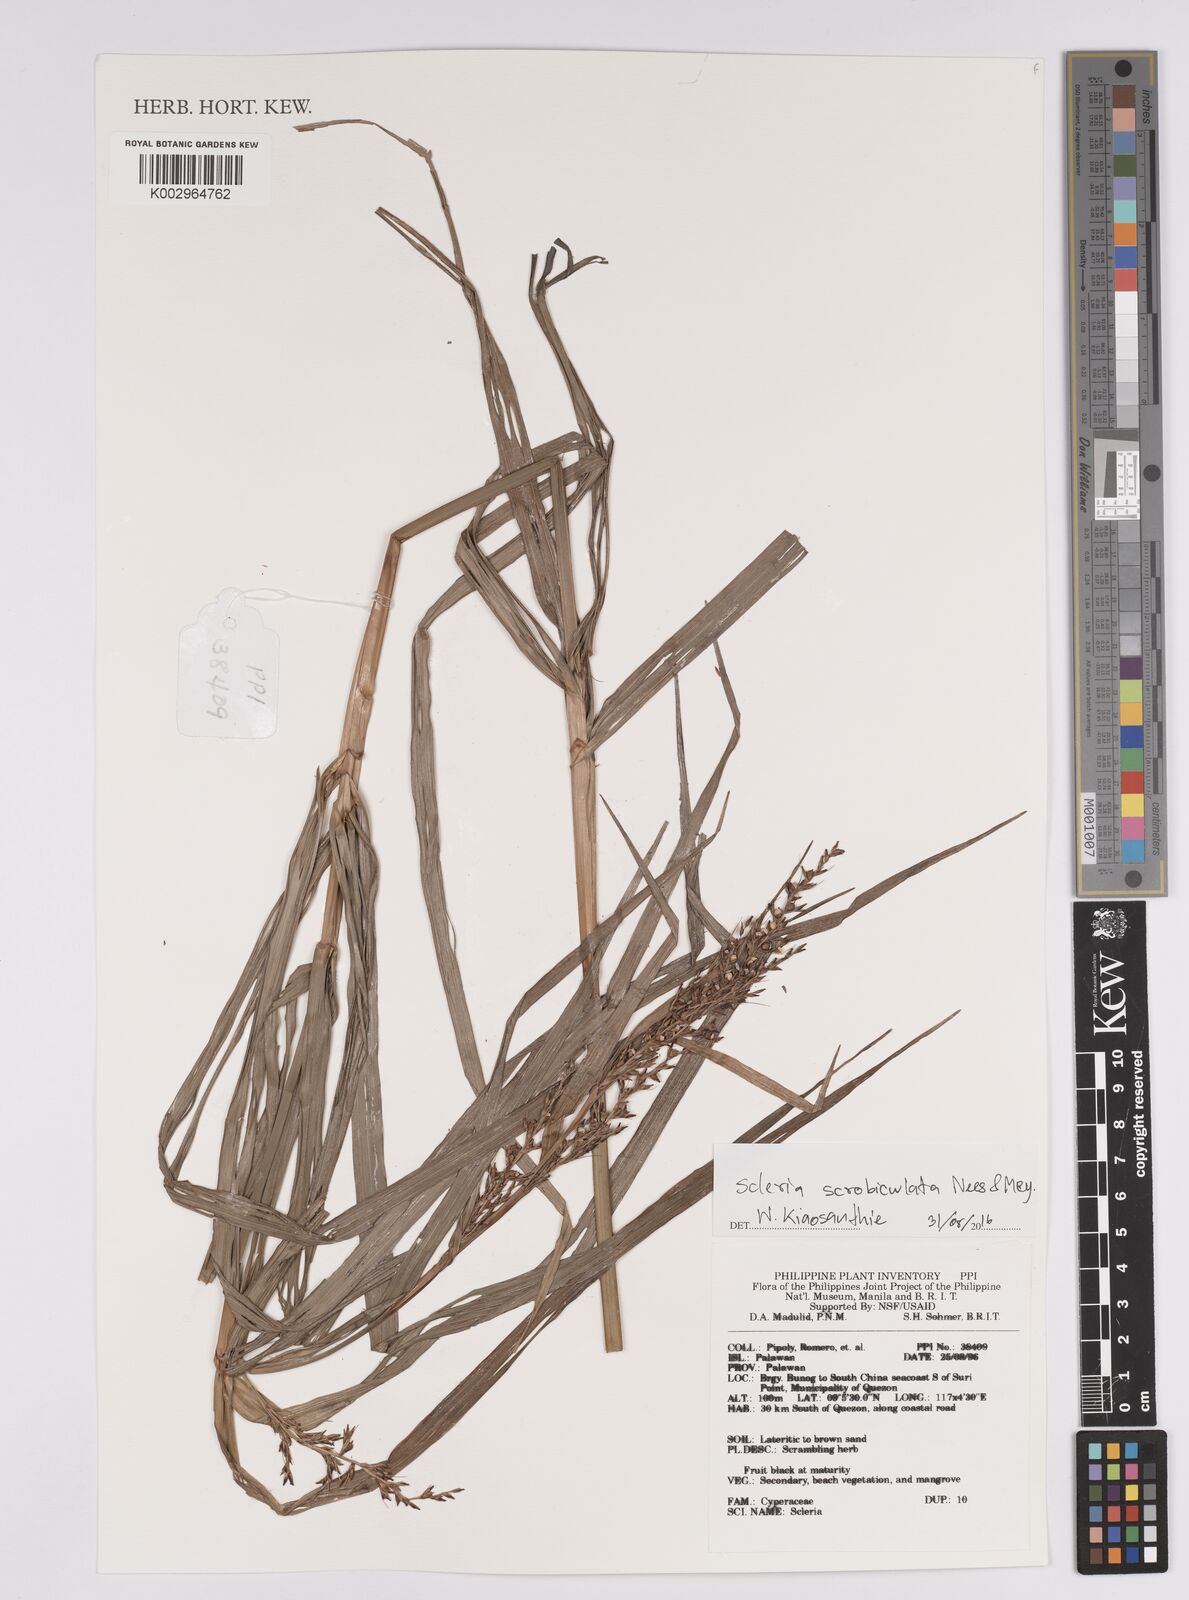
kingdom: Plantae
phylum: Tracheophyta
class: Liliopsida
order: Poales
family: Cyperaceae
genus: Scleria
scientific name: Scleria scrobiculata
